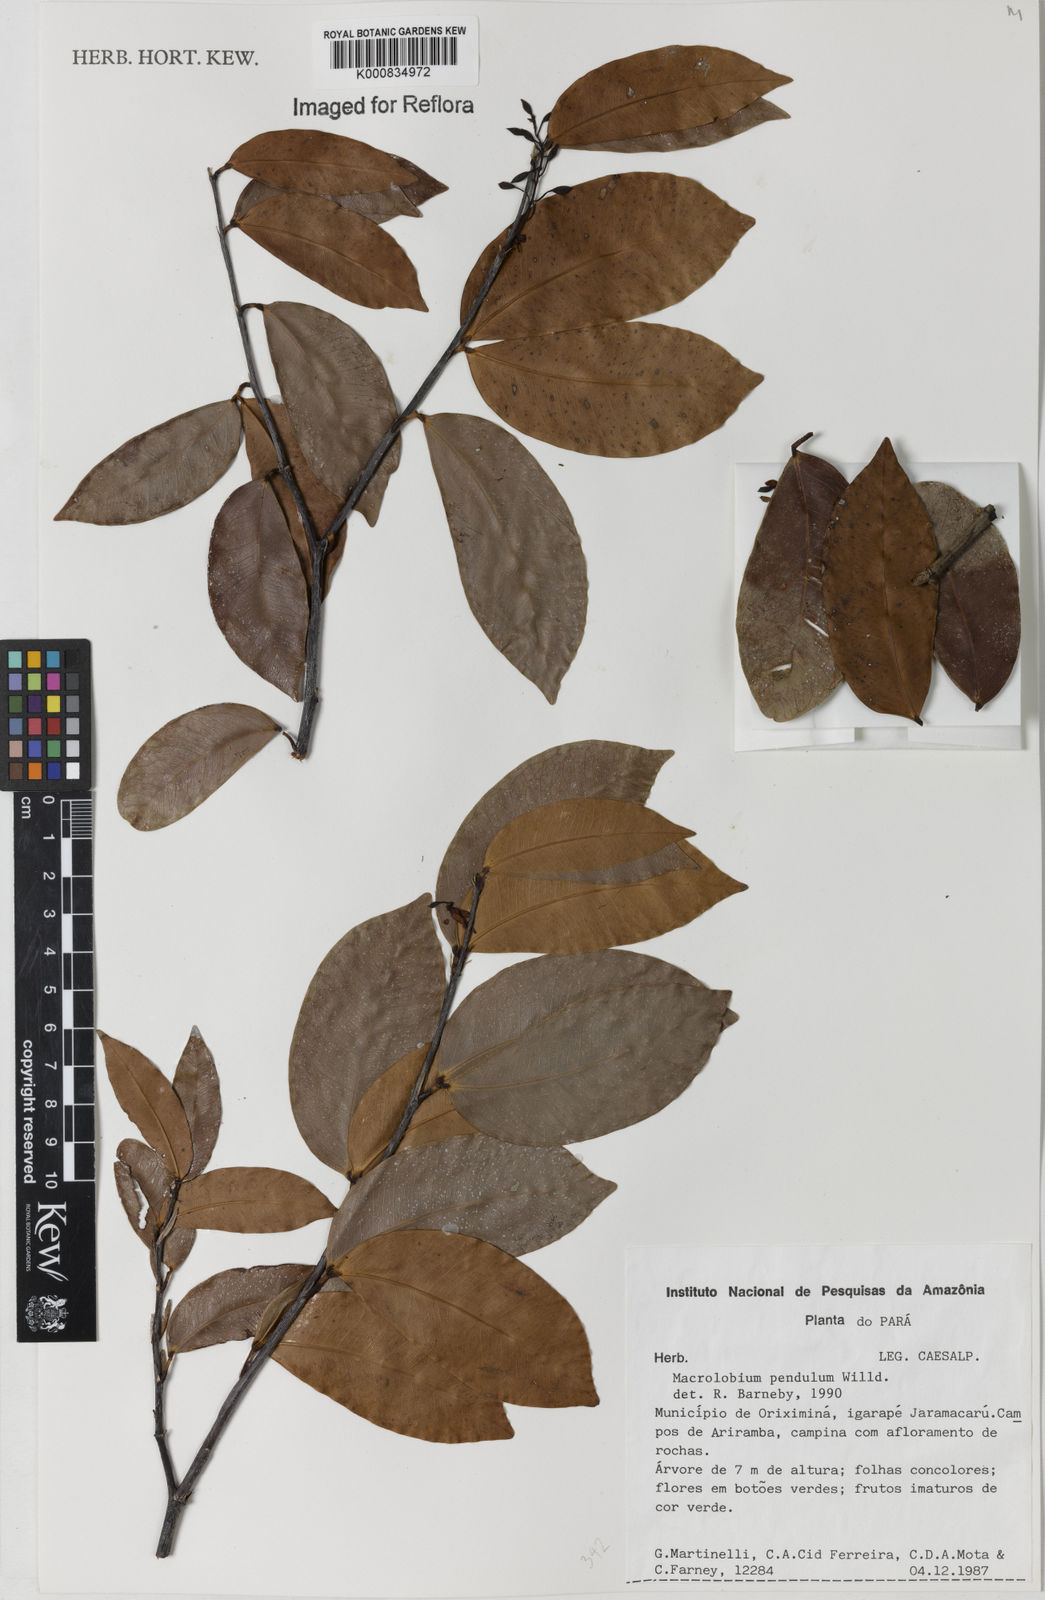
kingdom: Plantae
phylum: Tracheophyta
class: Magnoliopsida
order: Fabales
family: Fabaceae
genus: Macrolobium
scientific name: Macrolobium pendulum
